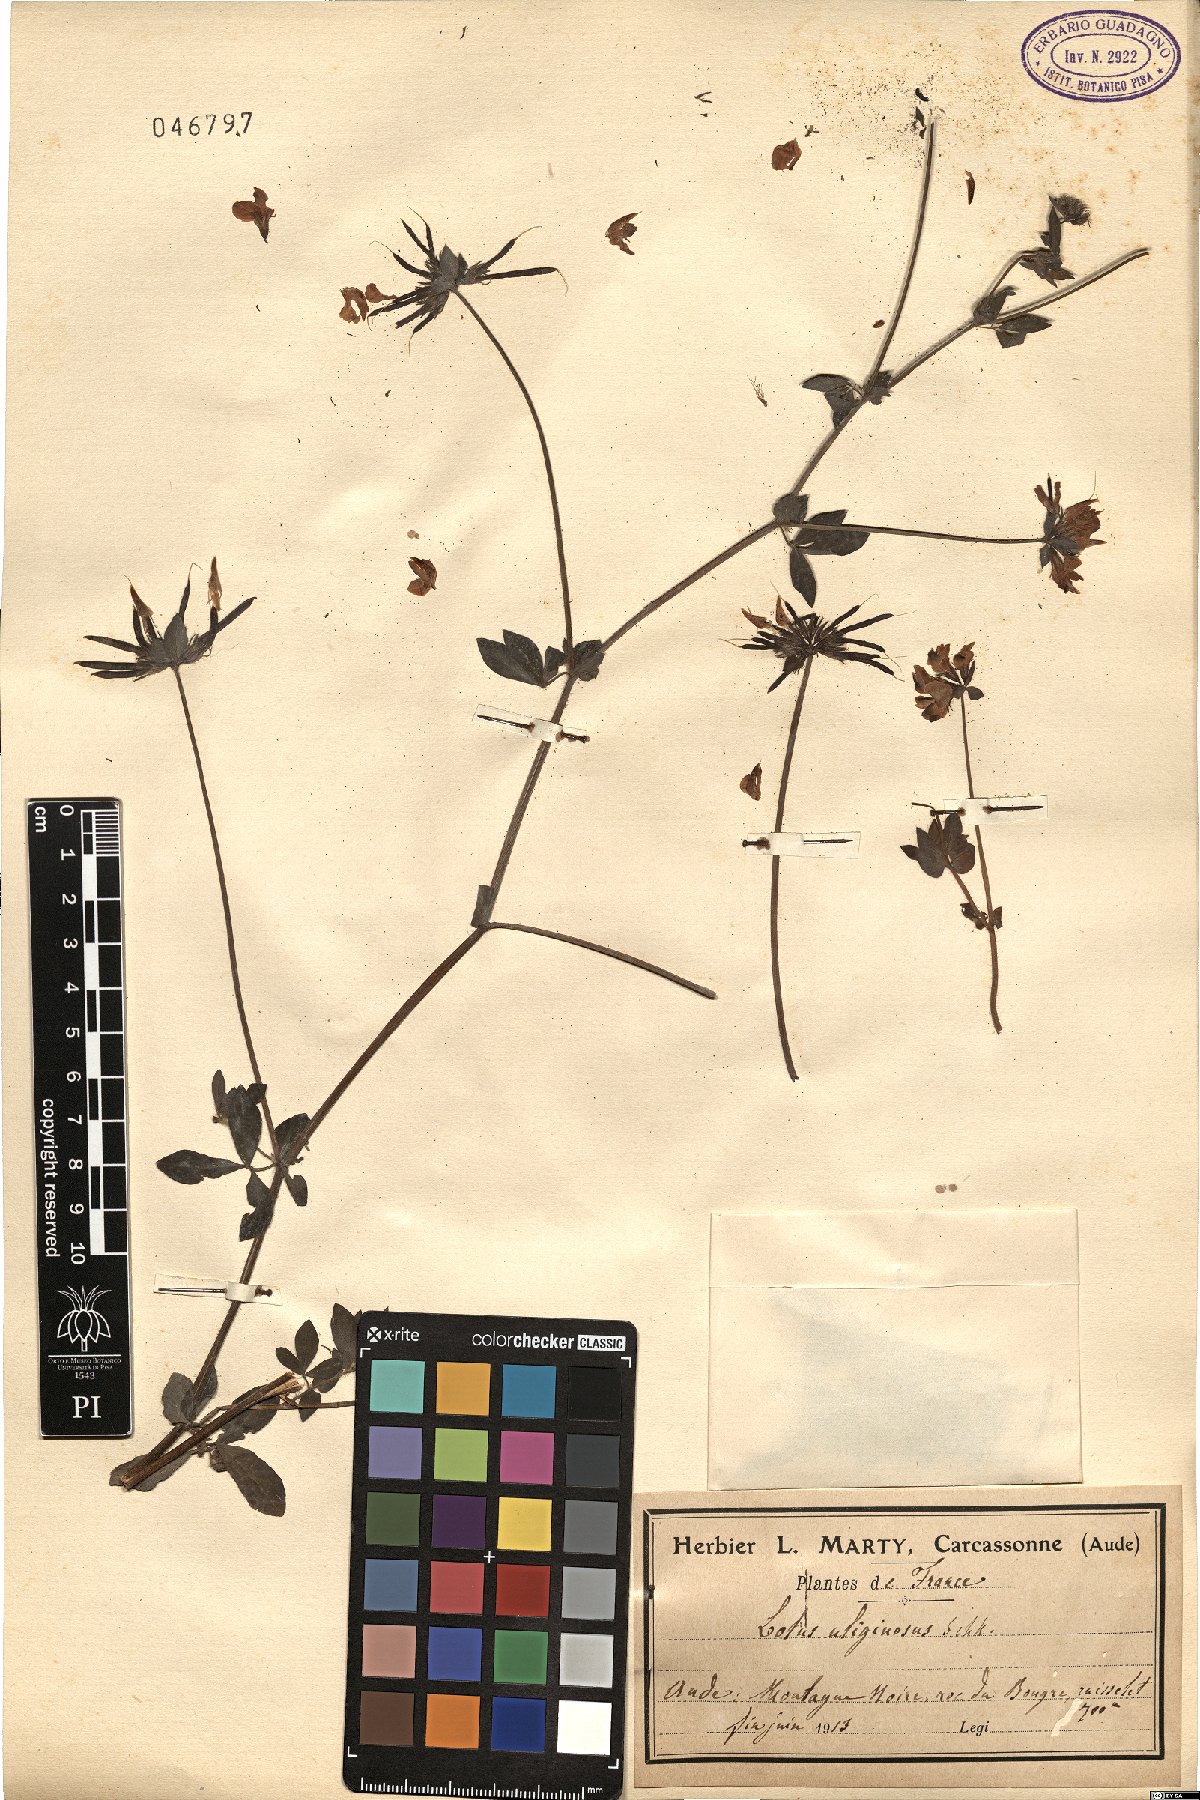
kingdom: Plantae
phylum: Tracheophyta
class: Magnoliopsida
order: Fabales
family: Fabaceae
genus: Lotus
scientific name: Lotus pedunculatus
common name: Greater birdsfoot-trefoil
